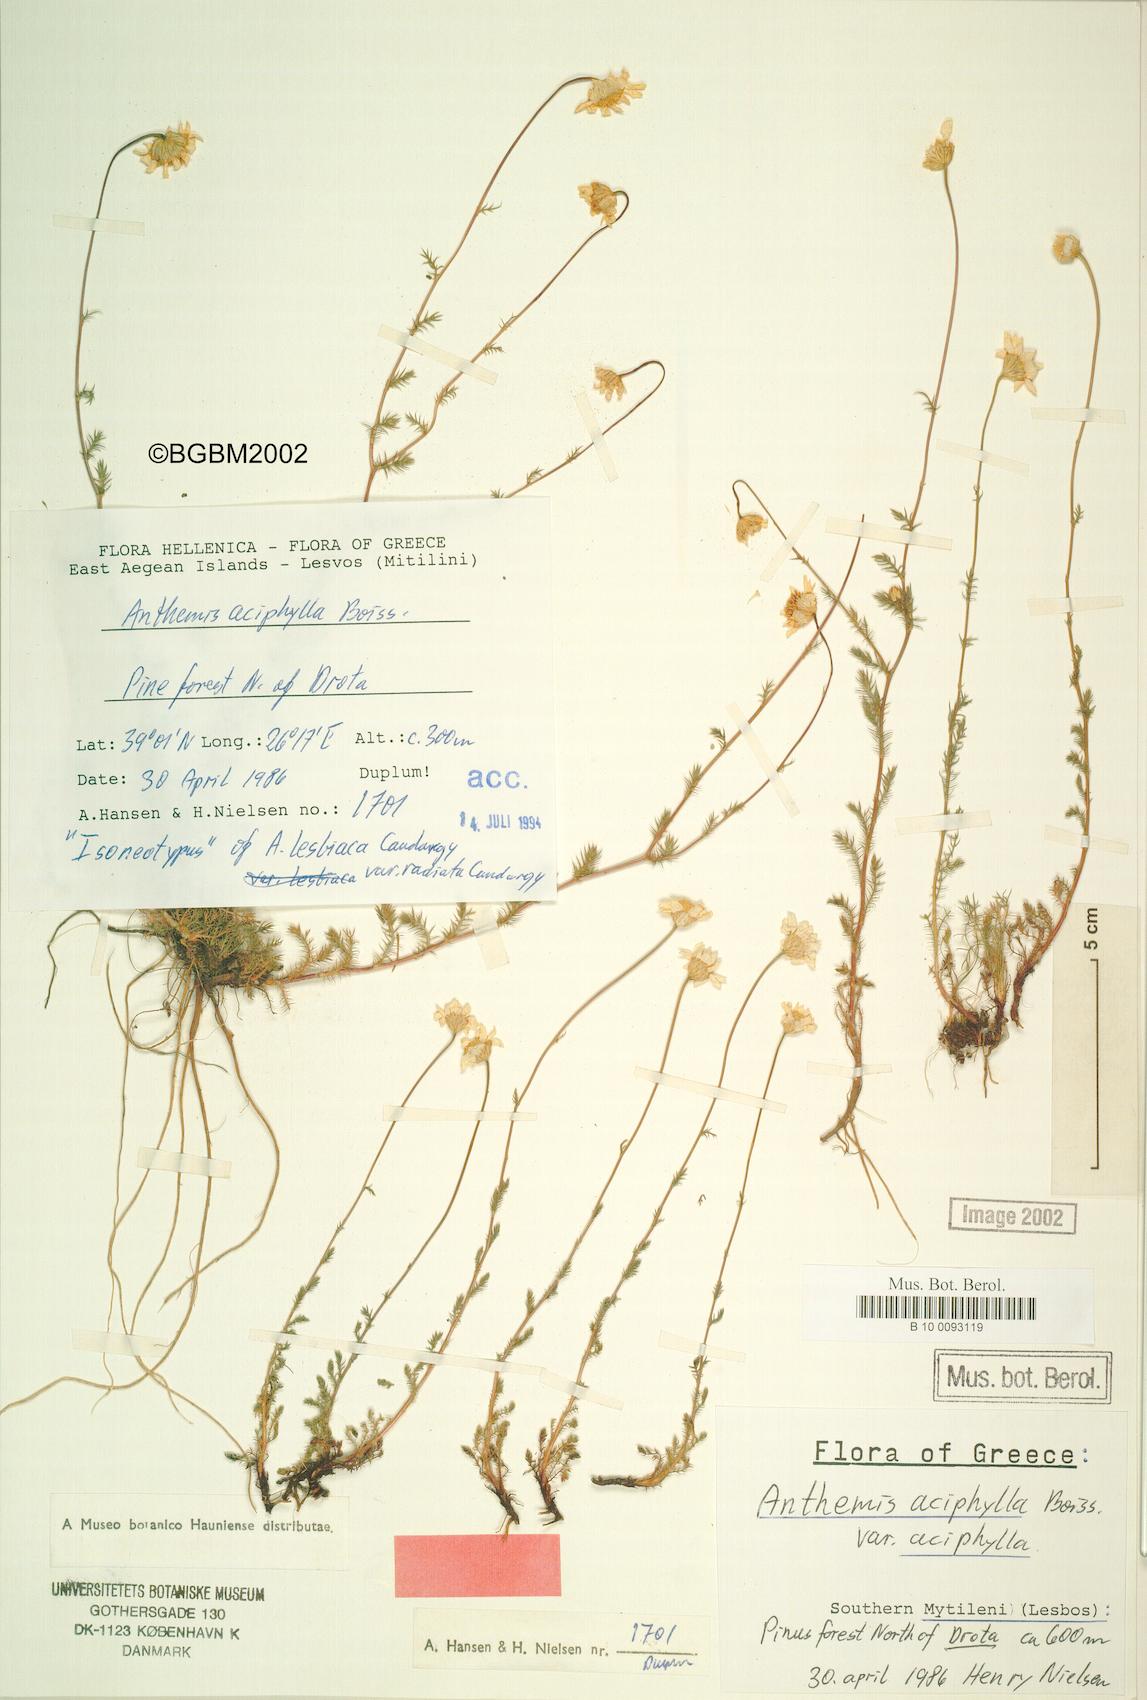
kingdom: Plantae
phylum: Tracheophyta
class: Magnoliopsida
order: Asterales
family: Asteraceae
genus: Anthemis
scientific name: Anthemis aciphylla
